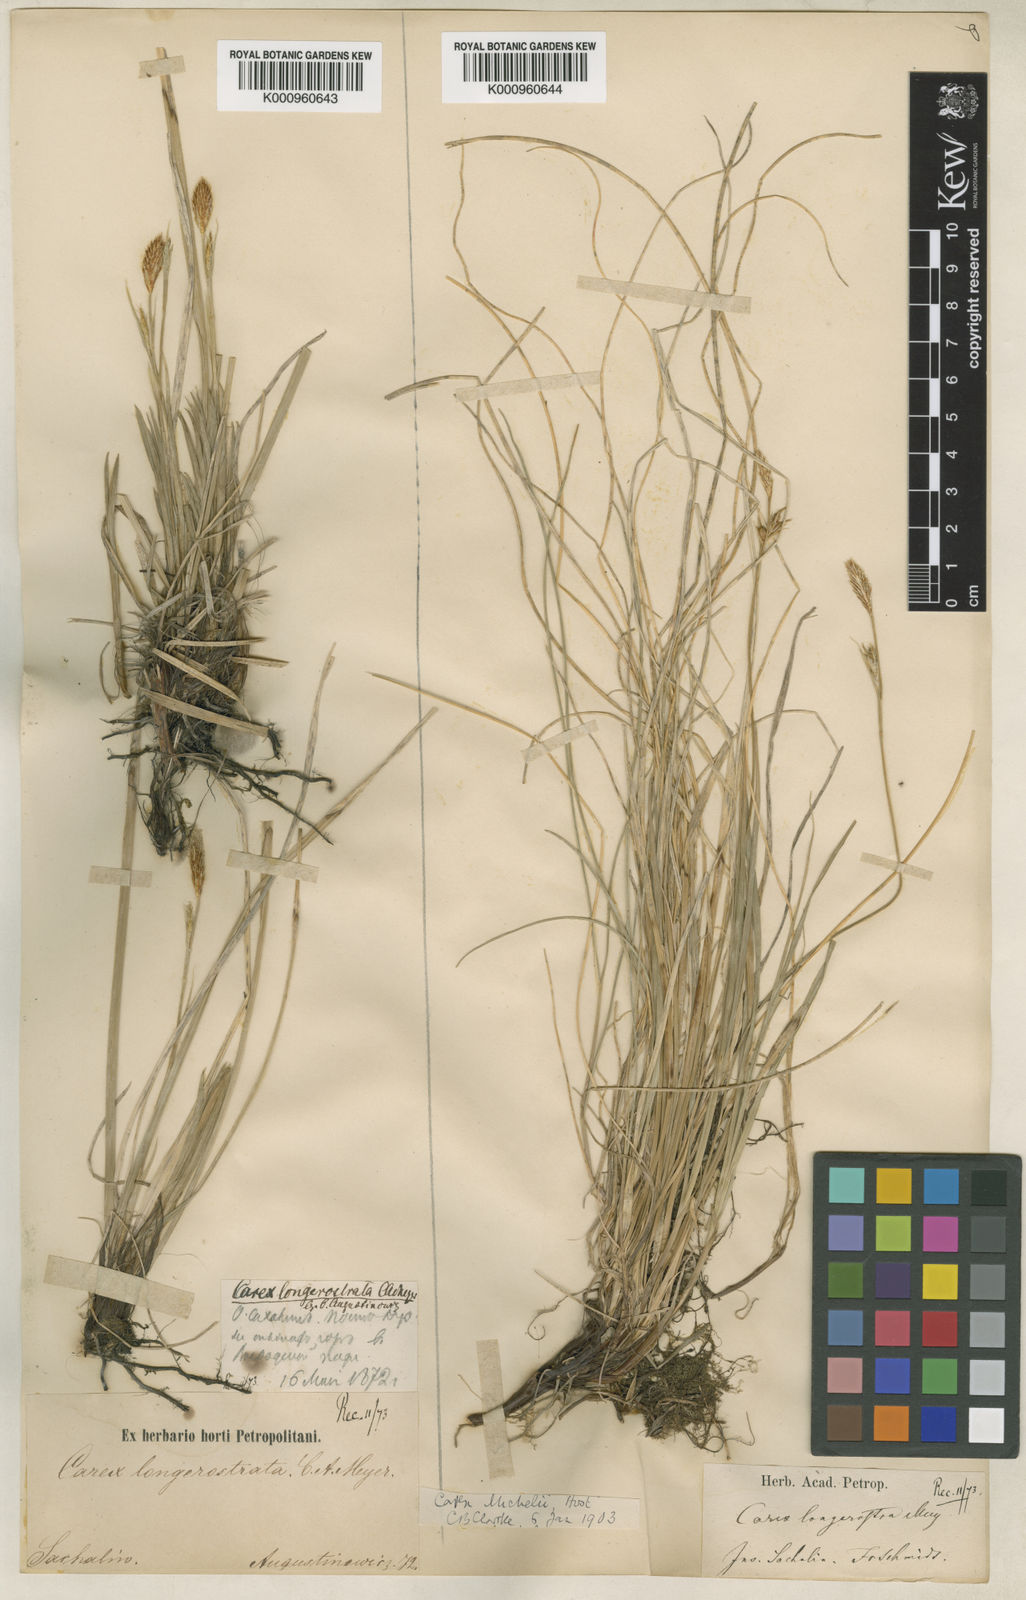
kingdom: Plantae
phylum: Tracheophyta
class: Liliopsida
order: Poales
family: Cyperaceae
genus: Carex
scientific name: Carex longerostrata
